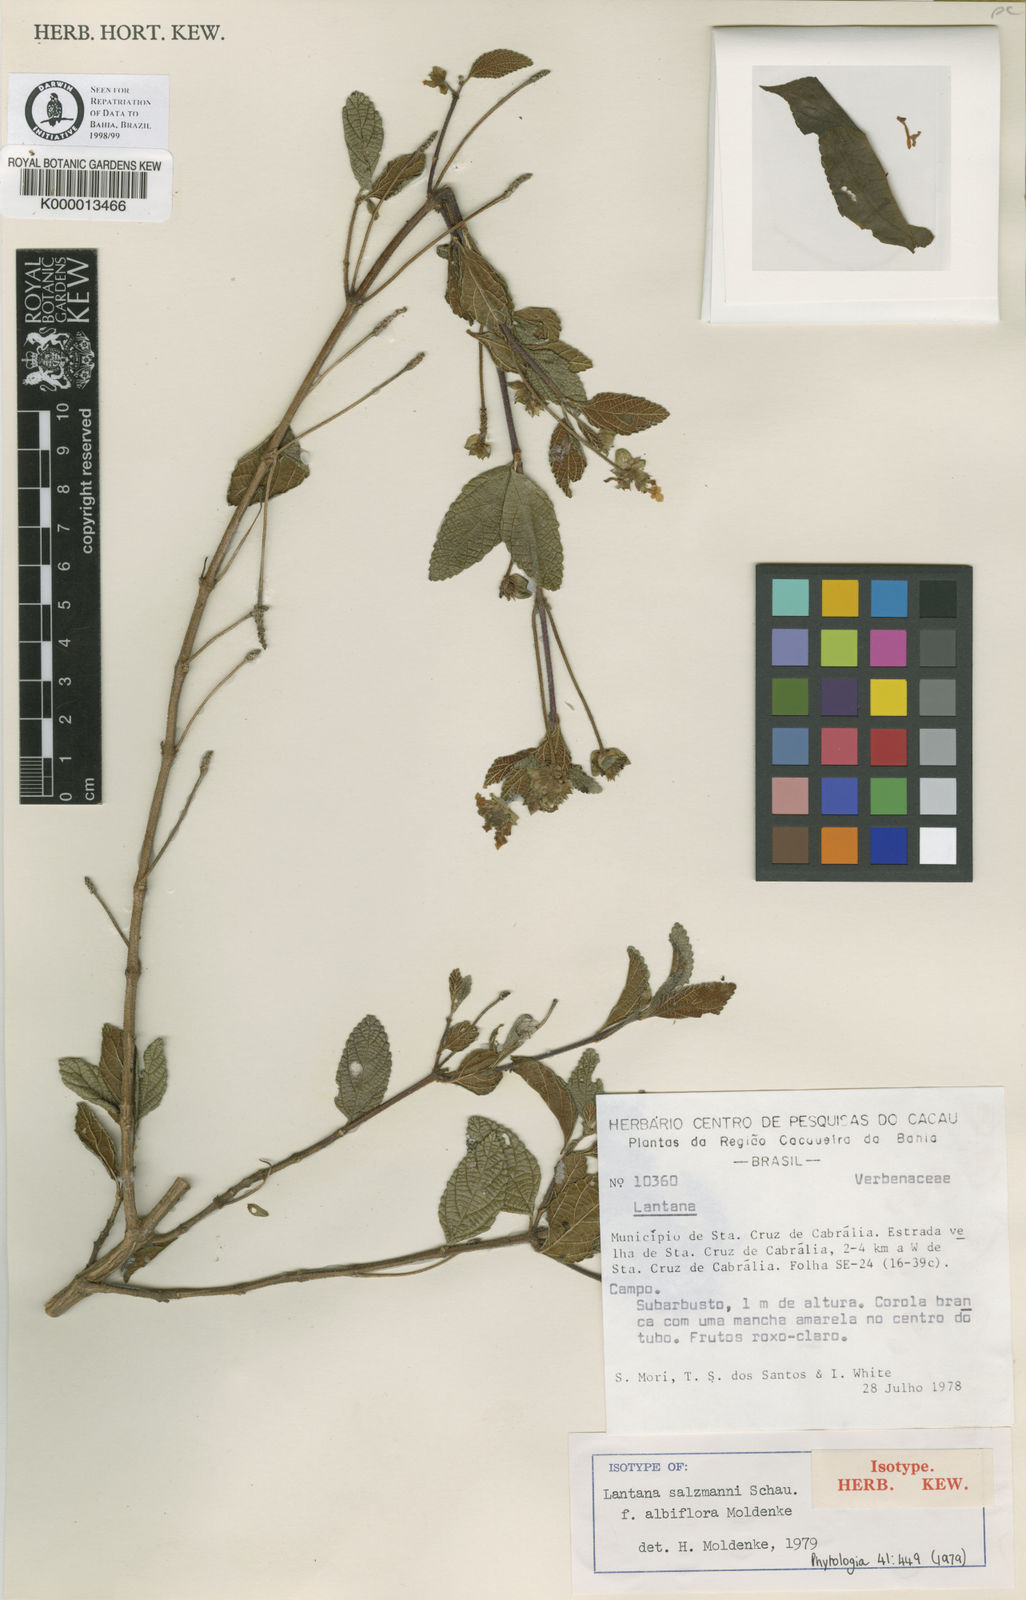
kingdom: Plantae
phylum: Tracheophyta
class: Magnoliopsida
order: Lamiales
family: Verbenaceae
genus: Lantana
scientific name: Lantana salzmannii
